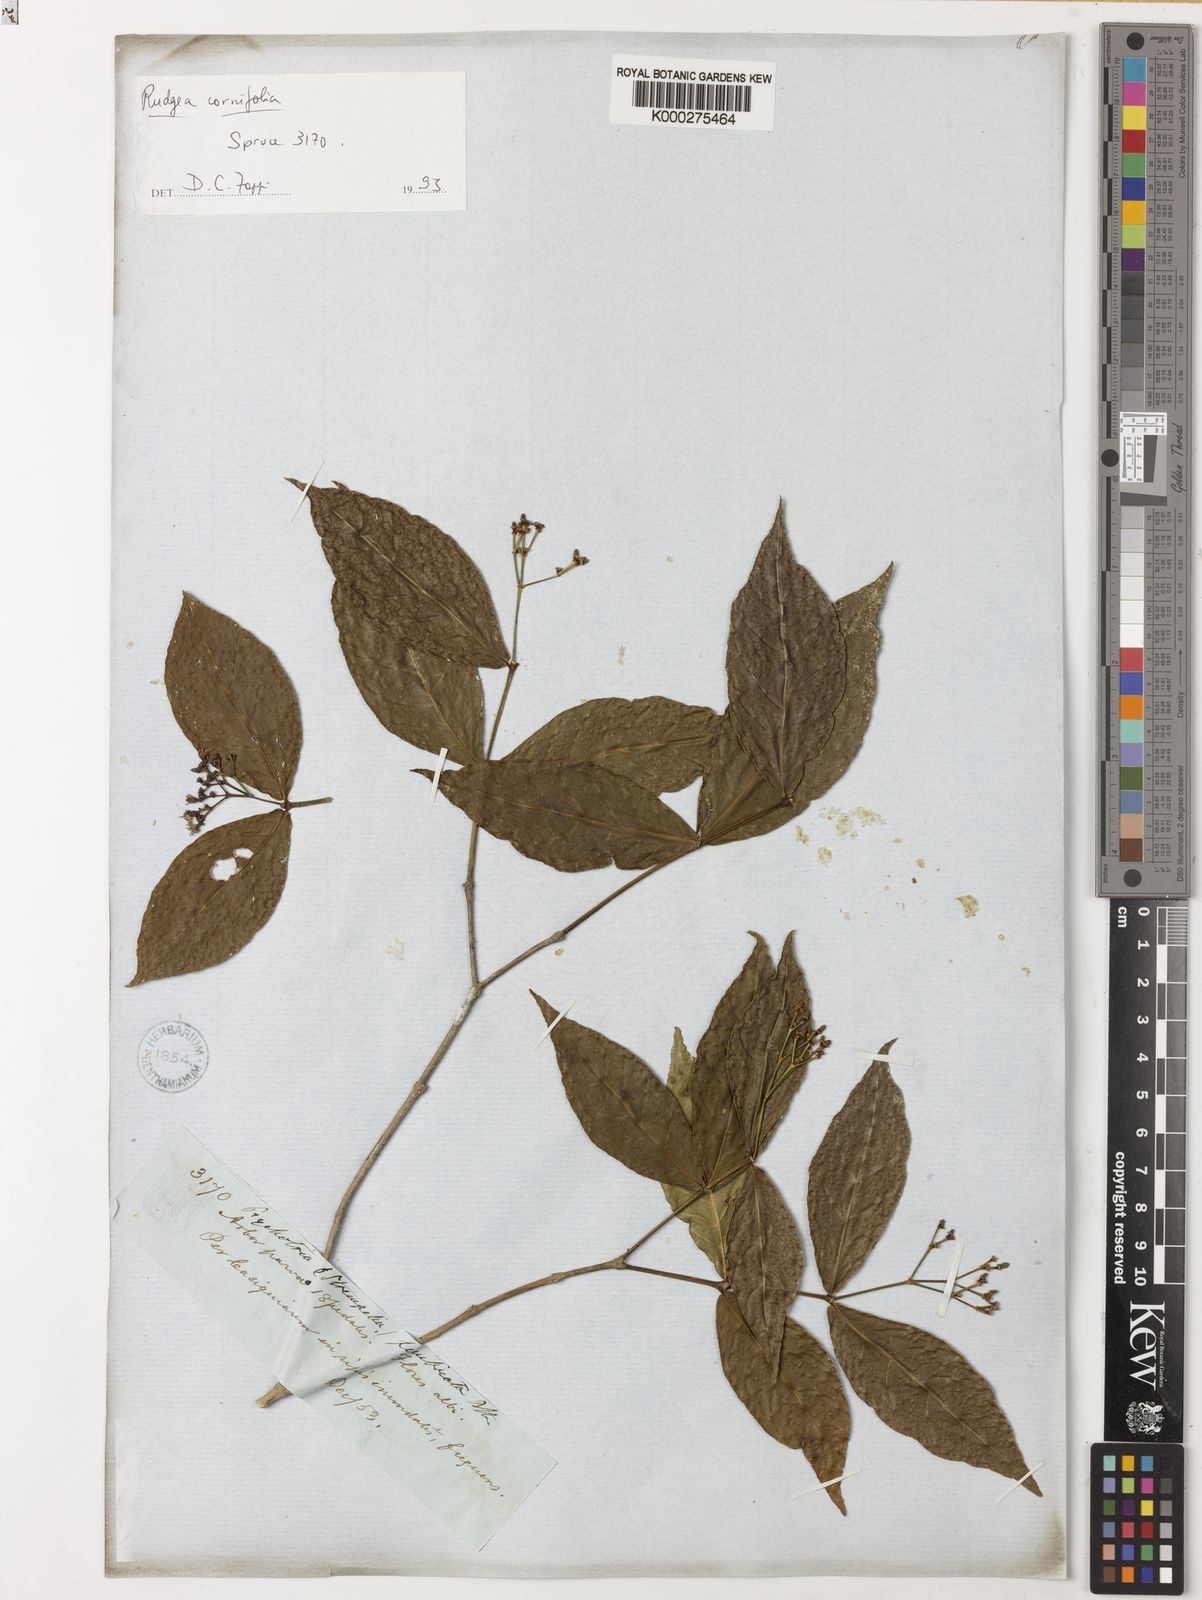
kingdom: Plantae
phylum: Tracheophyta
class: Magnoliopsida
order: Gentianales
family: Rubiaceae
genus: Rudgea
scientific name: Rudgea cornifolia
